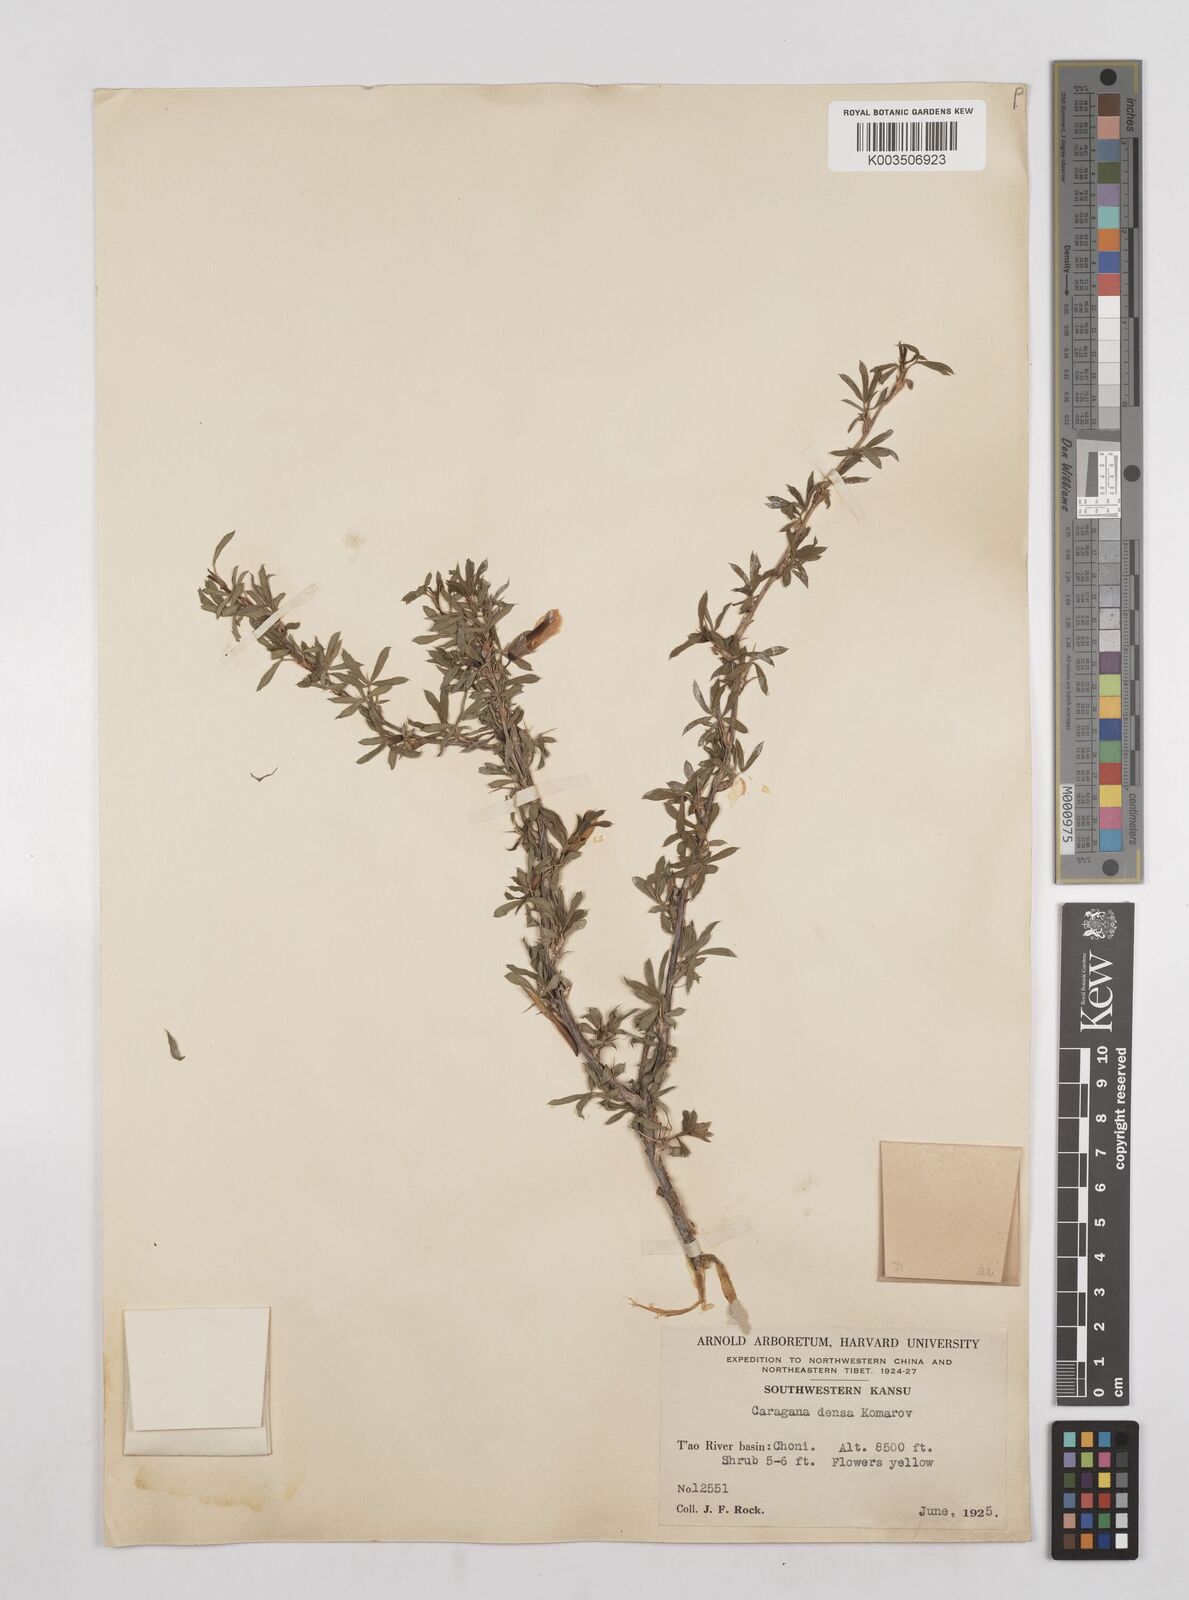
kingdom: Plantae
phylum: Tracheophyta
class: Magnoliopsida
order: Fabales
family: Fabaceae
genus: Caragana
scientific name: Caragana densa
